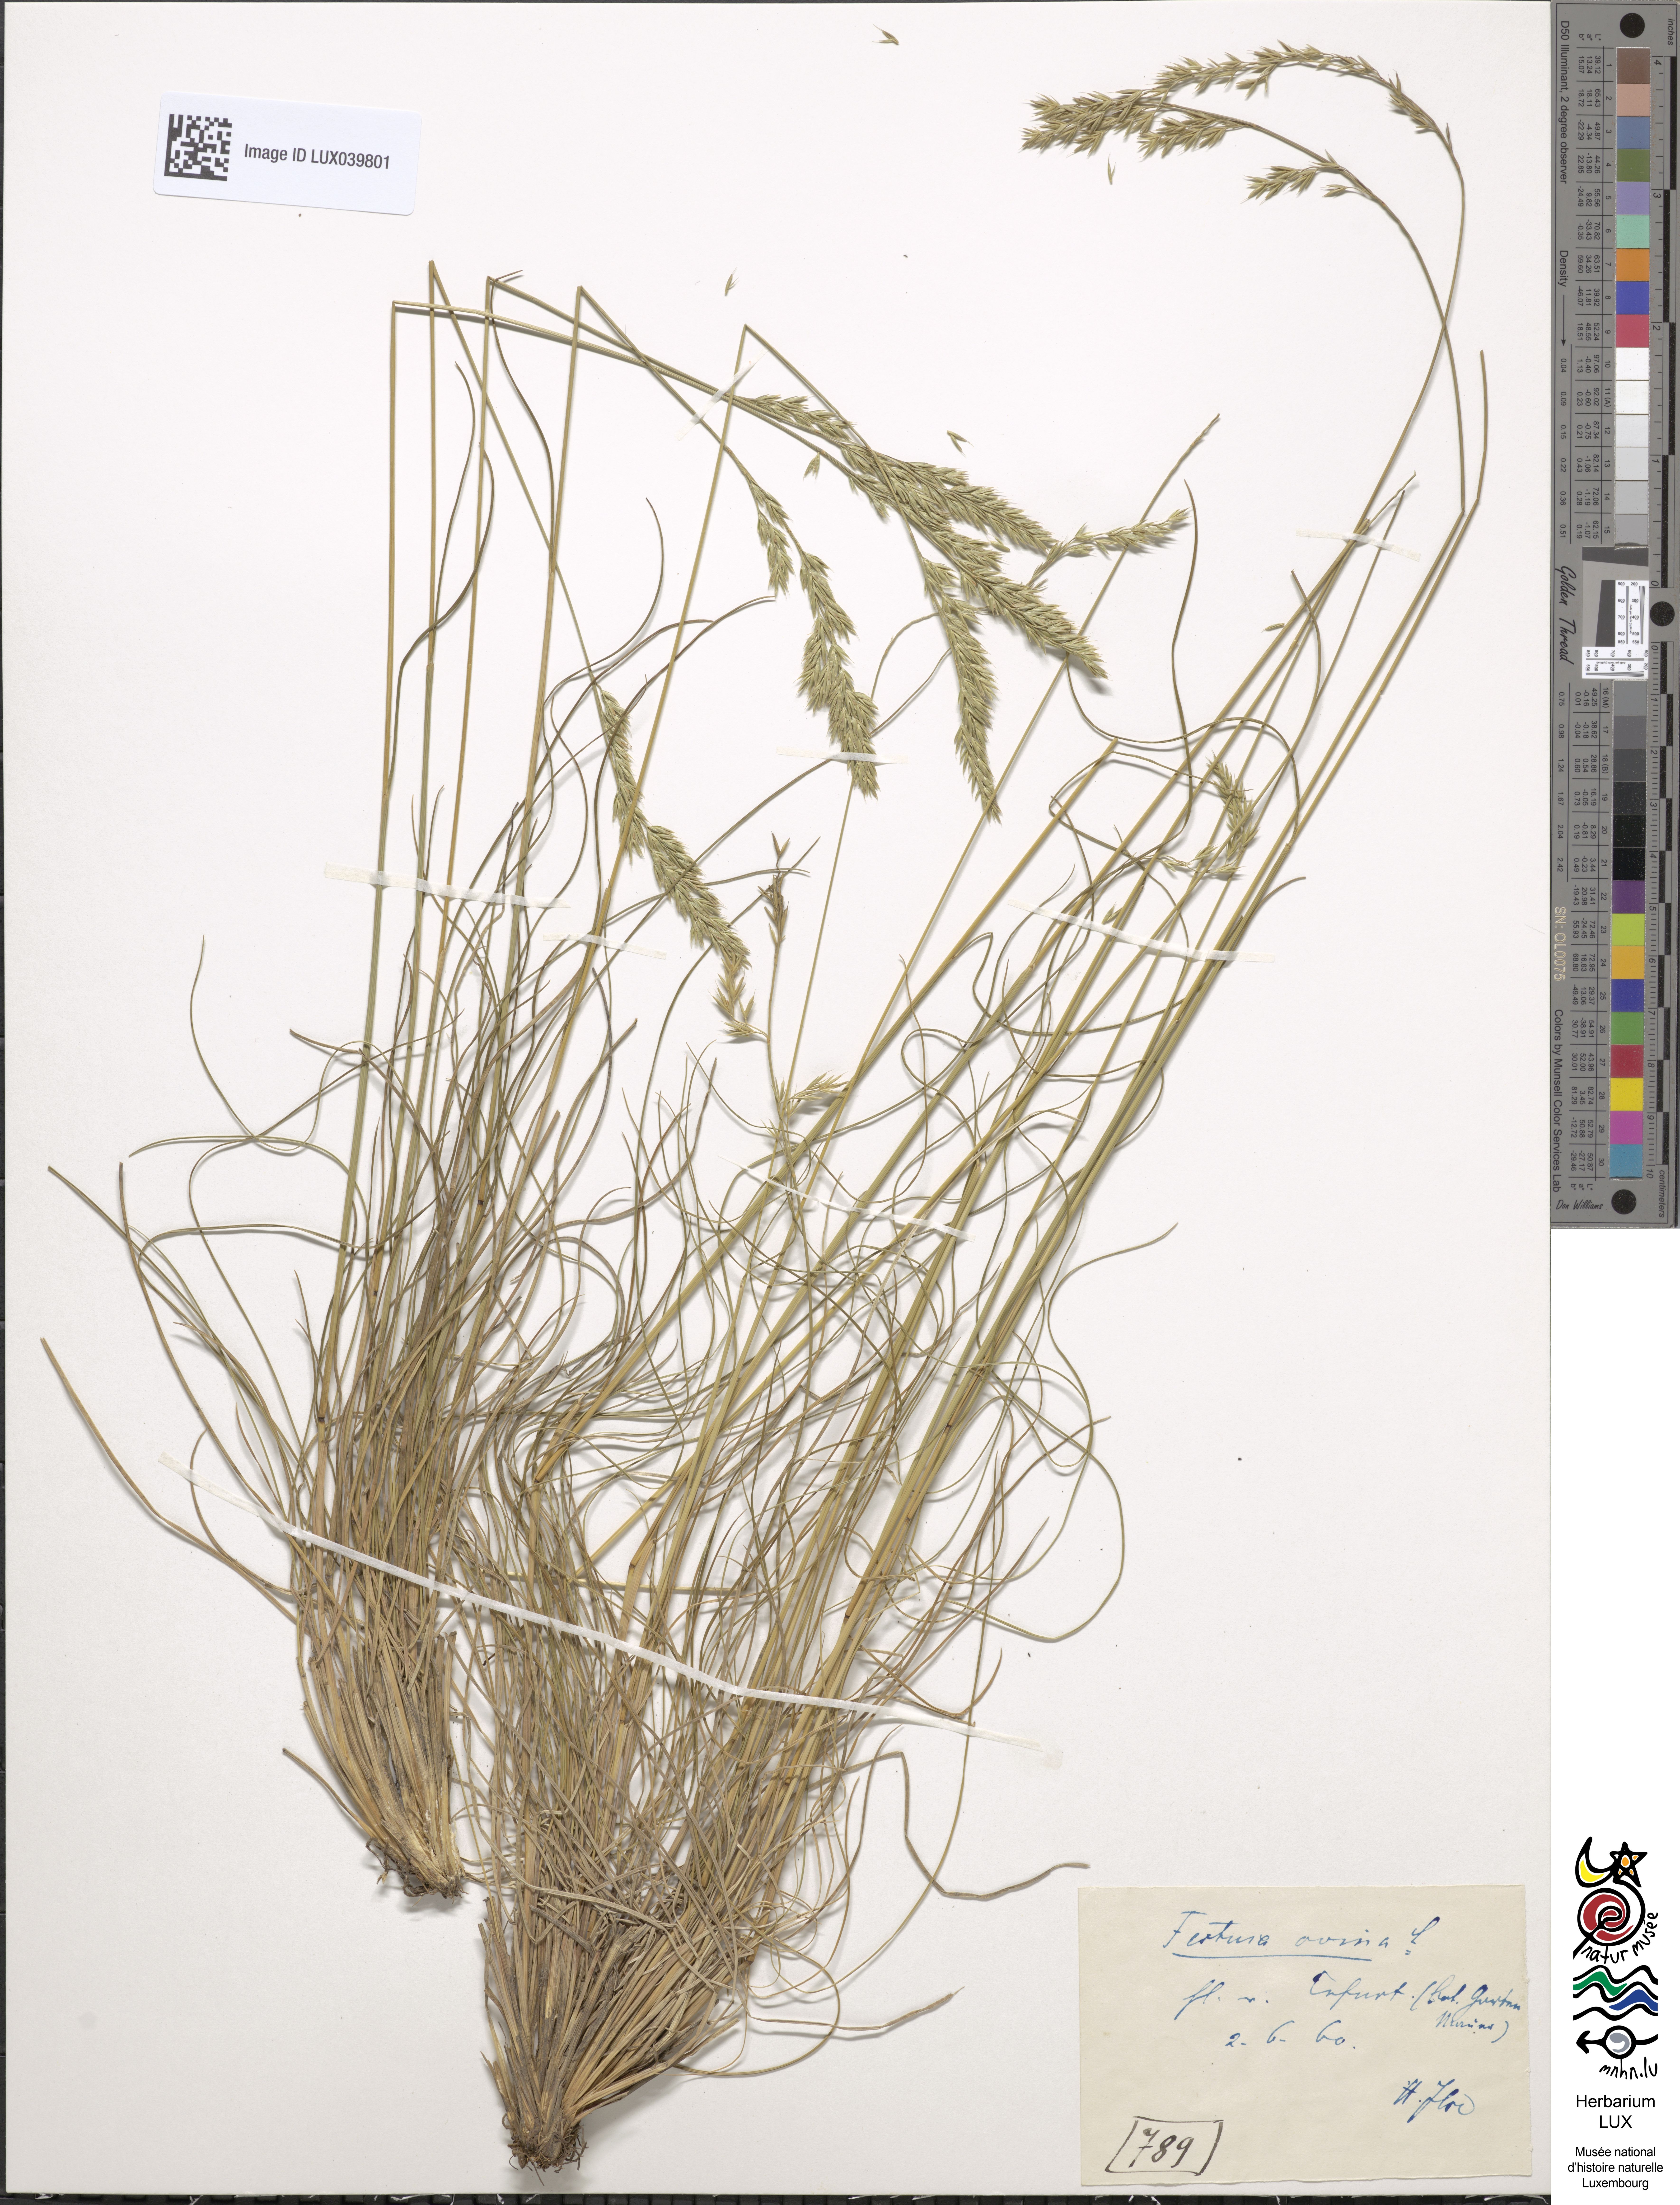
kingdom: Plantae
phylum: Tracheophyta
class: Liliopsida
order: Poales
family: Poaceae
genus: Festuca
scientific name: Festuca ovina
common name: Sheep fescue
